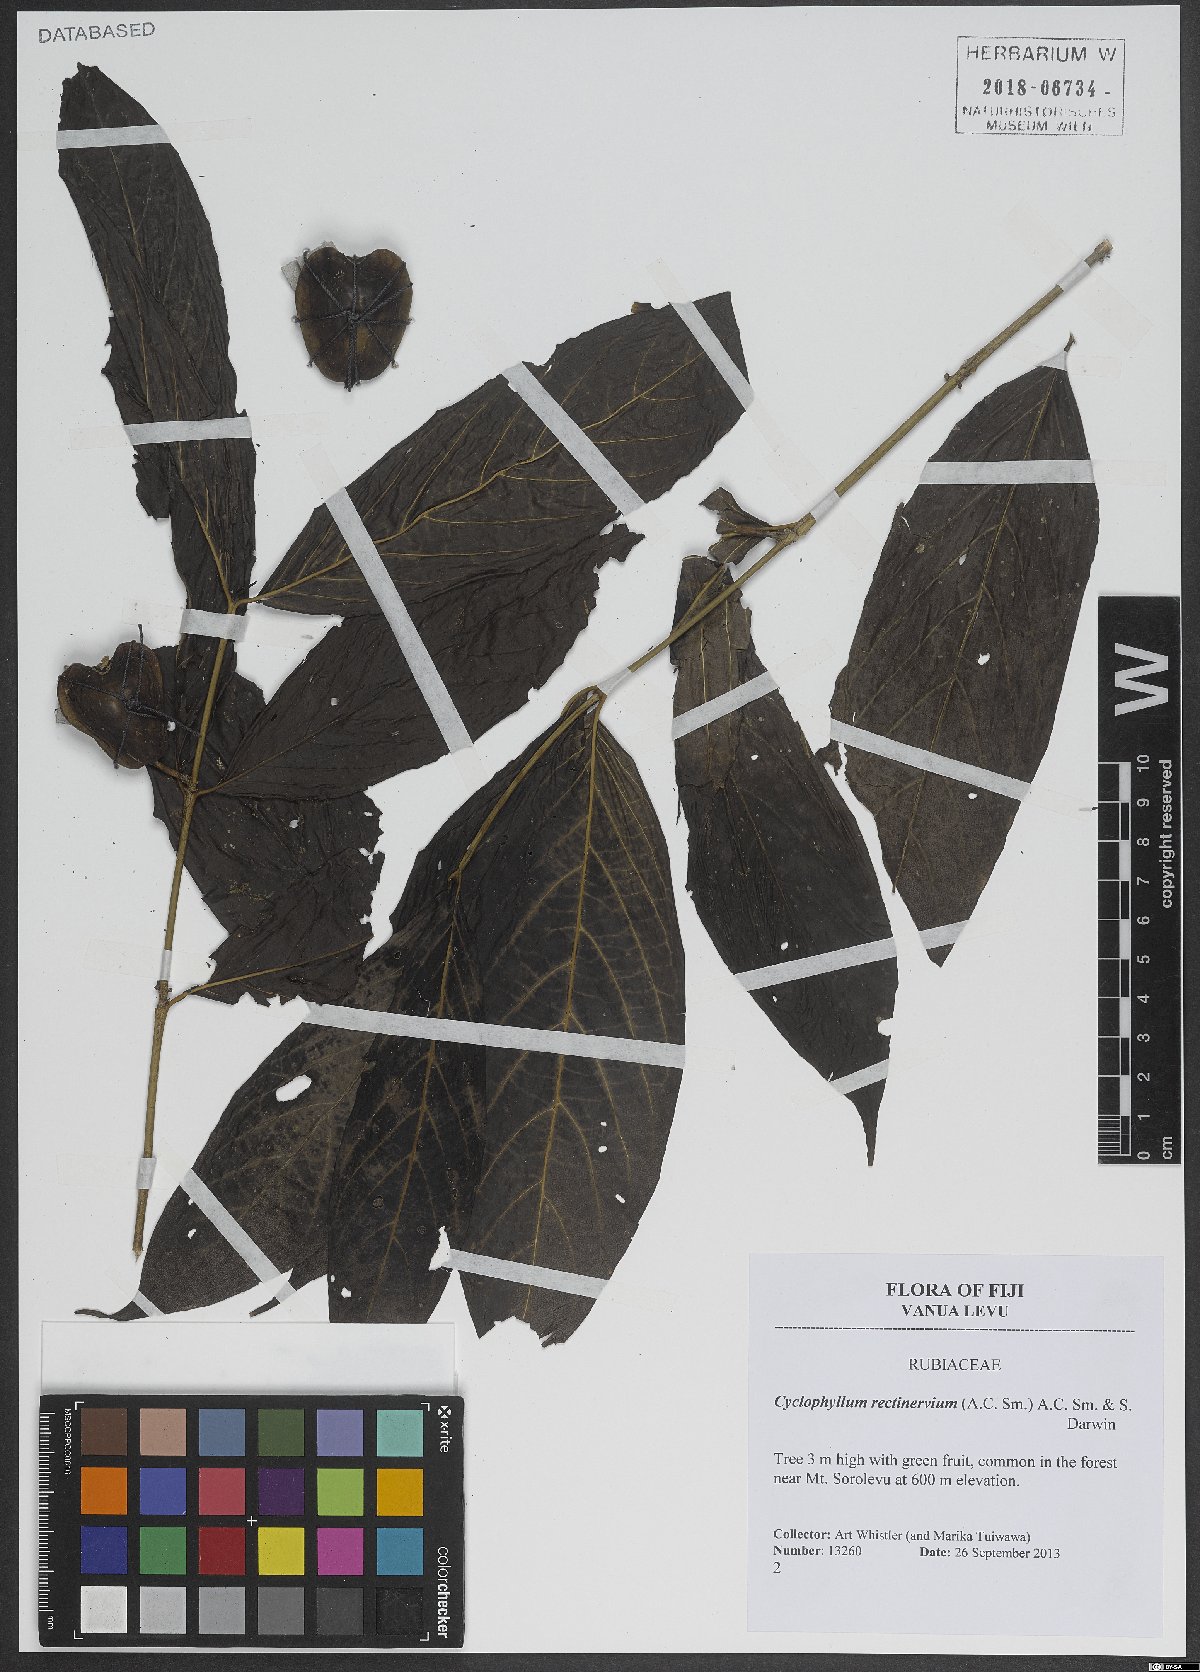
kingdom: Plantae
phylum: Tracheophyta
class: Magnoliopsida
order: Gentianales
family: Rubiaceae
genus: Cyclophyllum
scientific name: Cyclophyllum rectinervium
